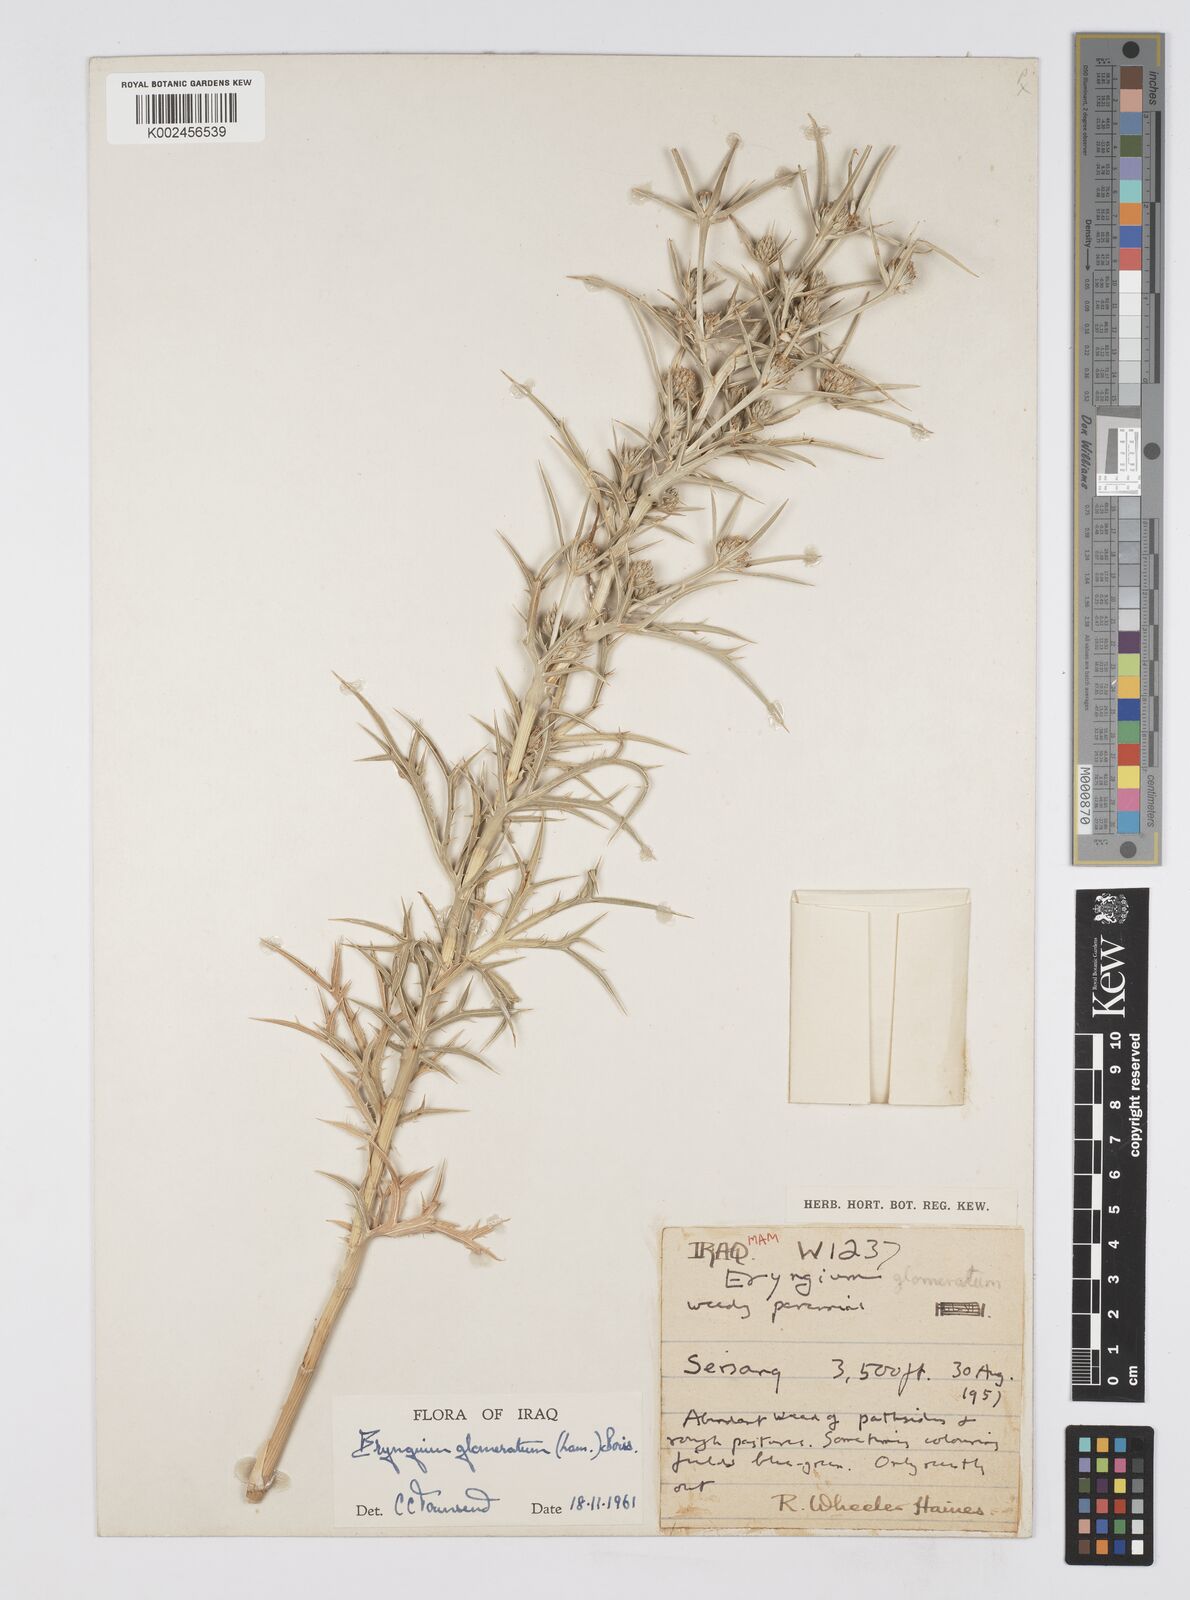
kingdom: Plantae
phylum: Tracheophyta
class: Magnoliopsida
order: Apiales
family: Apiaceae
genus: Eryngium
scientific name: Eryngium glomeratum
